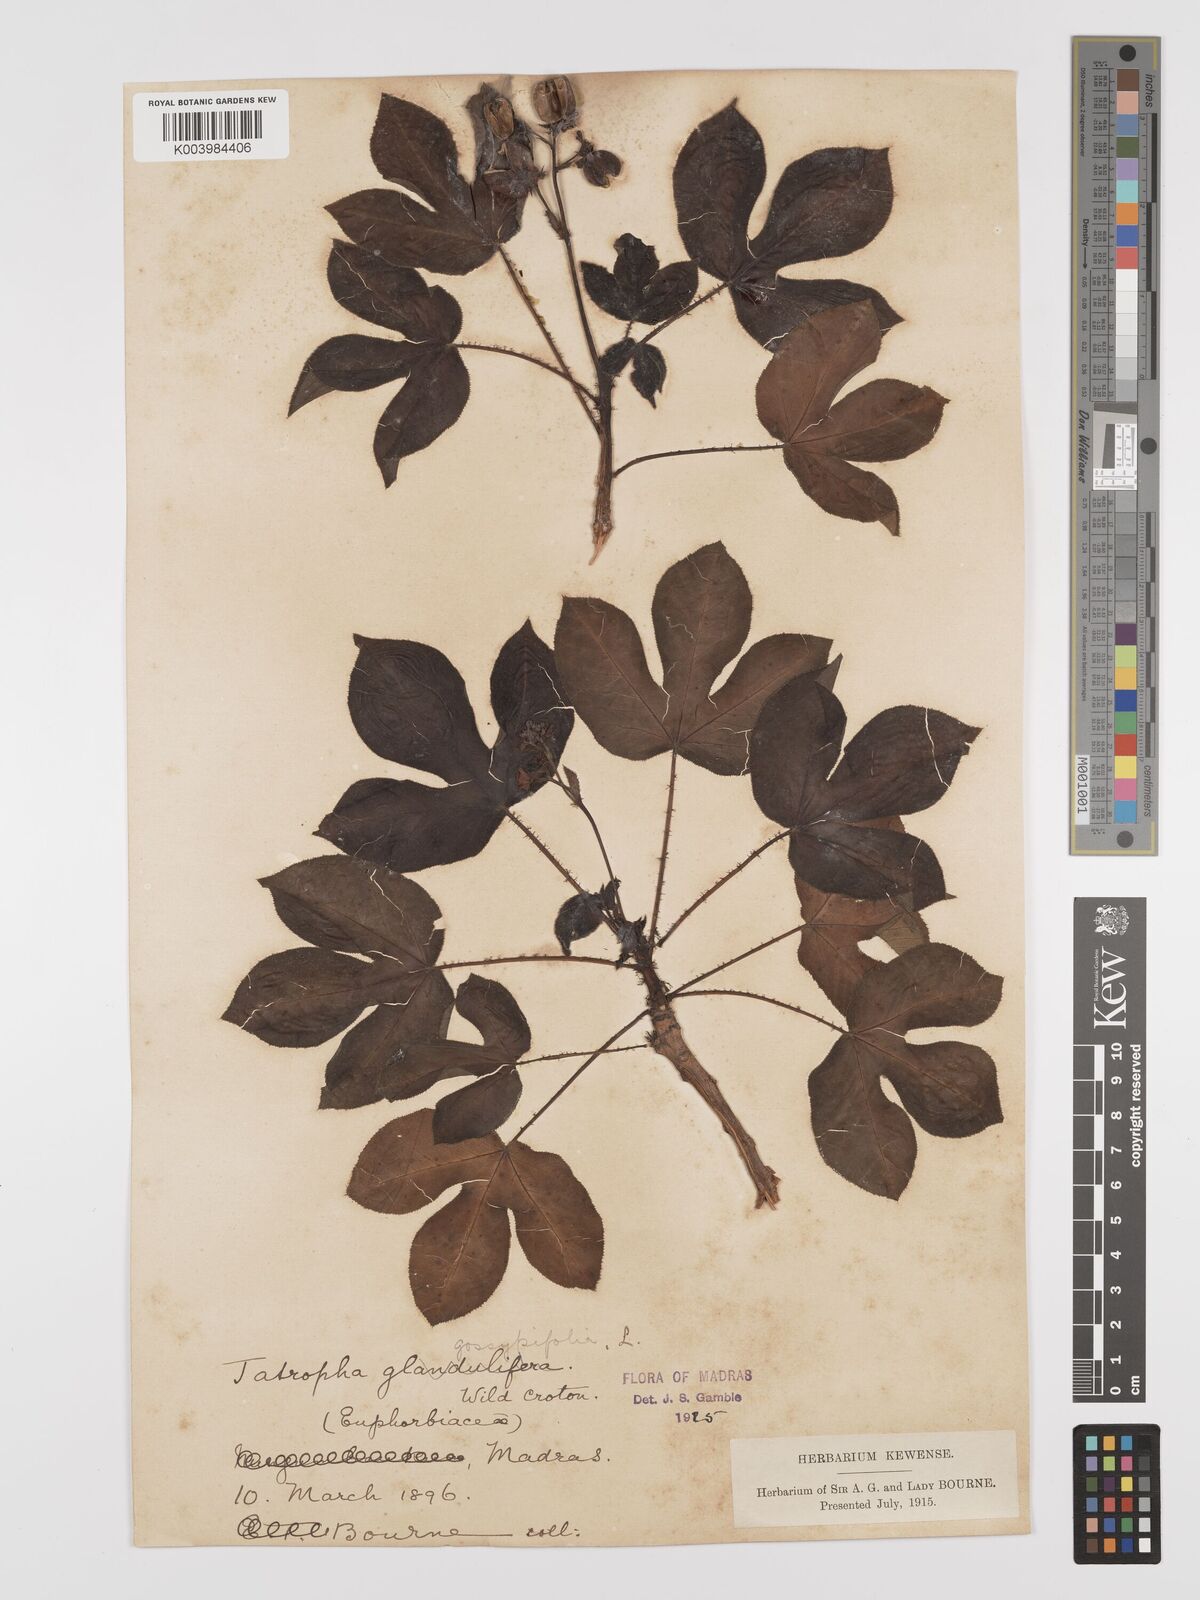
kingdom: Plantae
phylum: Tracheophyta
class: Magnoliopsida
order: Malpighiales
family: Euphorbiaceae
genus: Jatropha
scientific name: Jatropha gossypiifolia
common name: Bellyache bush
